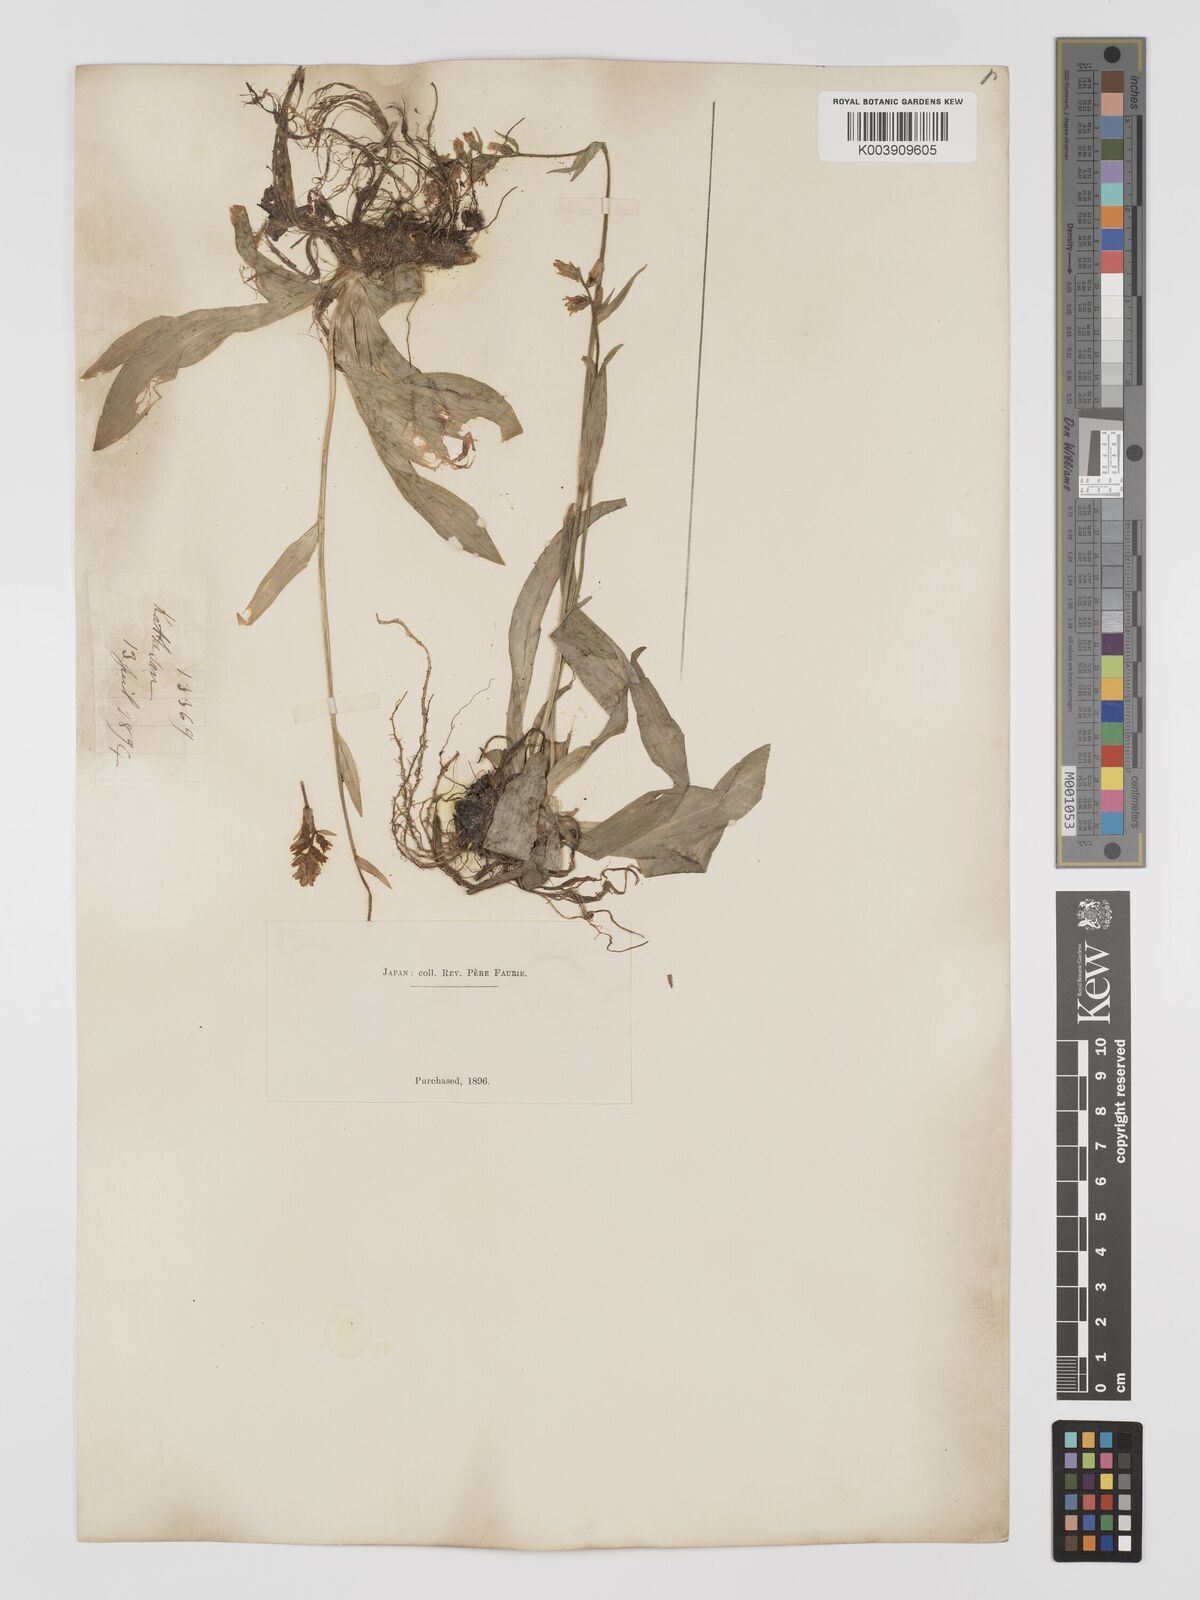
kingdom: Plantae
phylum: Tracheophyta
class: Liliopsida
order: Dioscoreales
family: Nartheciaceae
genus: Aletris
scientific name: Aletris foliata
